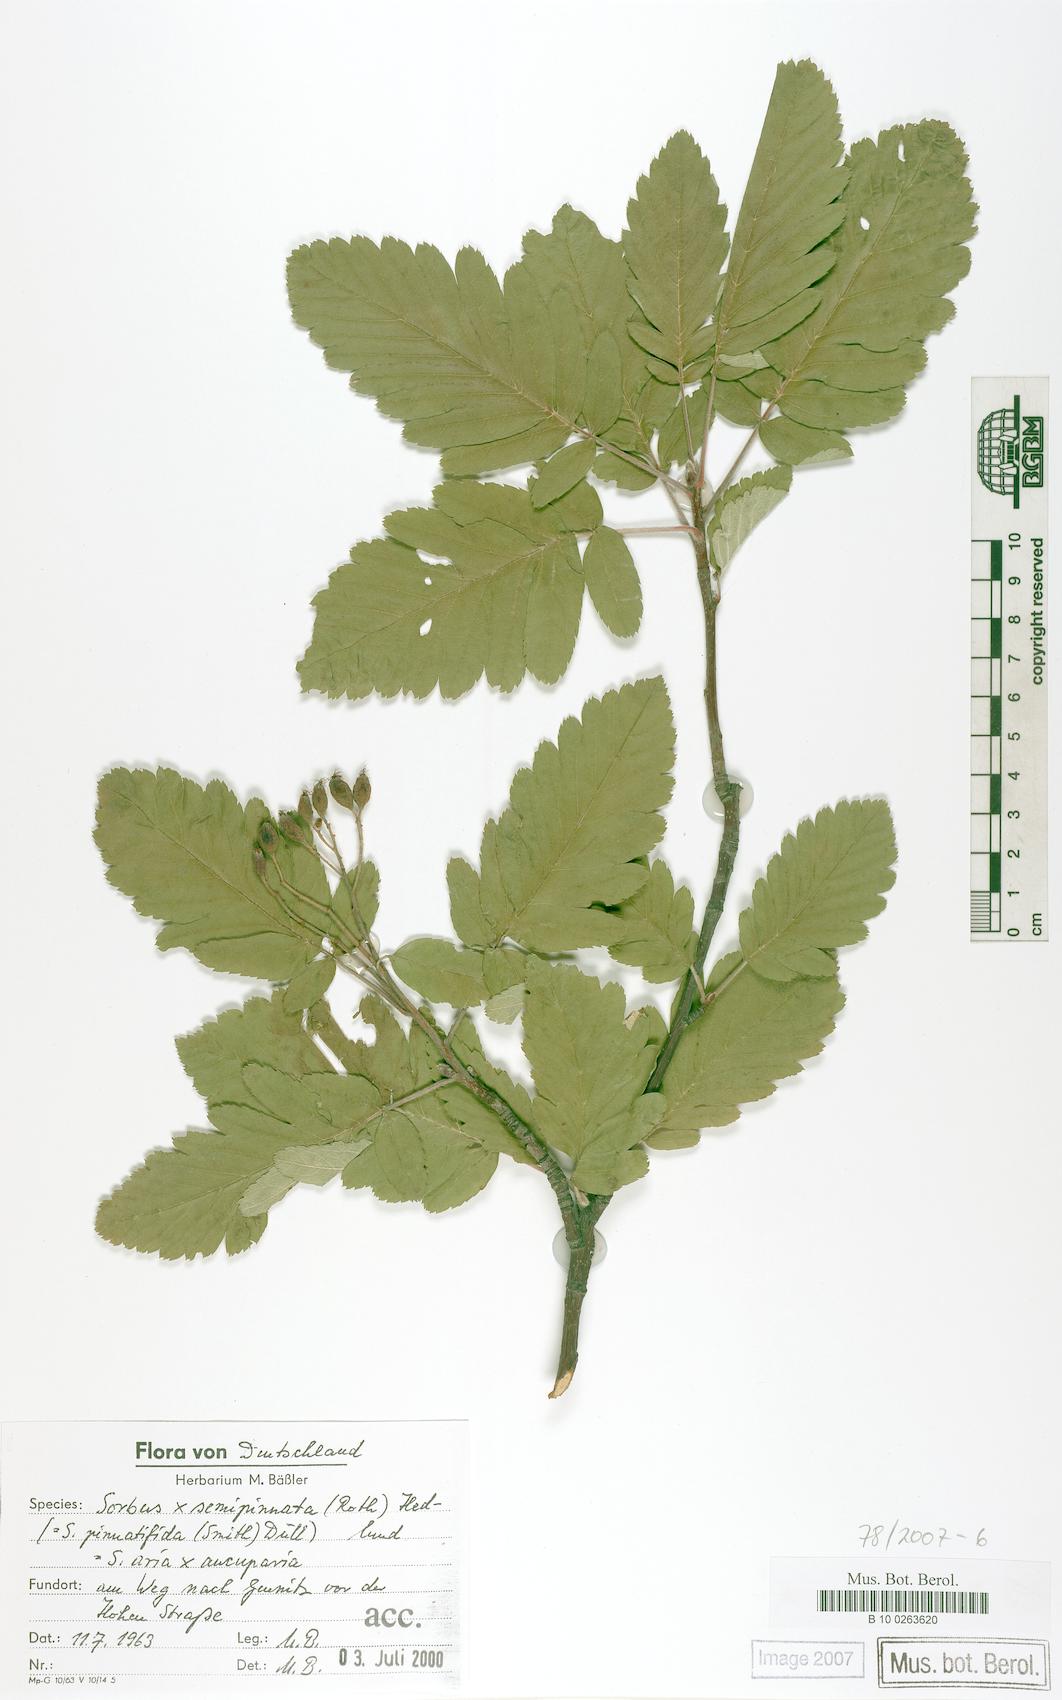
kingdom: Plantae
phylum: Tracheophyta
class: Magnoliopsida
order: Rosales
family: Rosaceae
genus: Hedlundia
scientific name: Hedlundia
